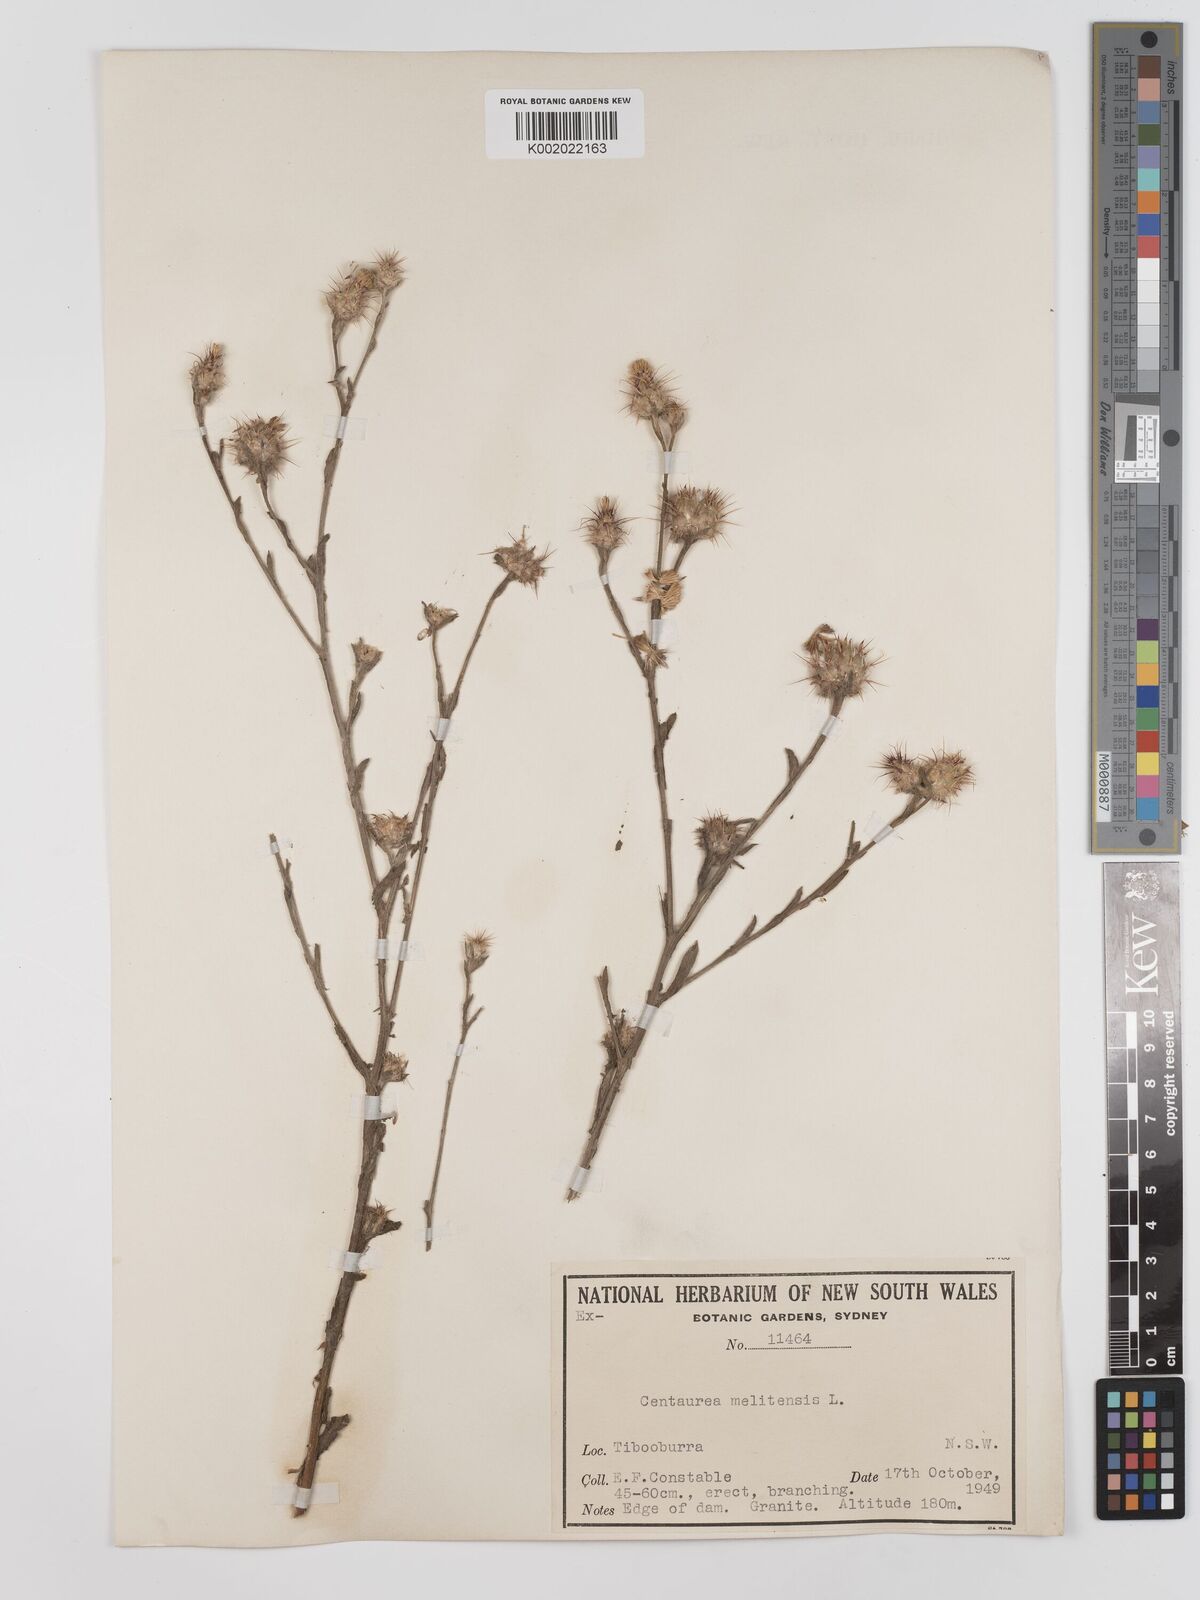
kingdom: Plantae
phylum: Tracheophyta
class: Magnoliopsida
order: Asterales
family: Asteraceae
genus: Centaurea
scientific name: Centaurea melitensis
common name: Maltese star-thistle
